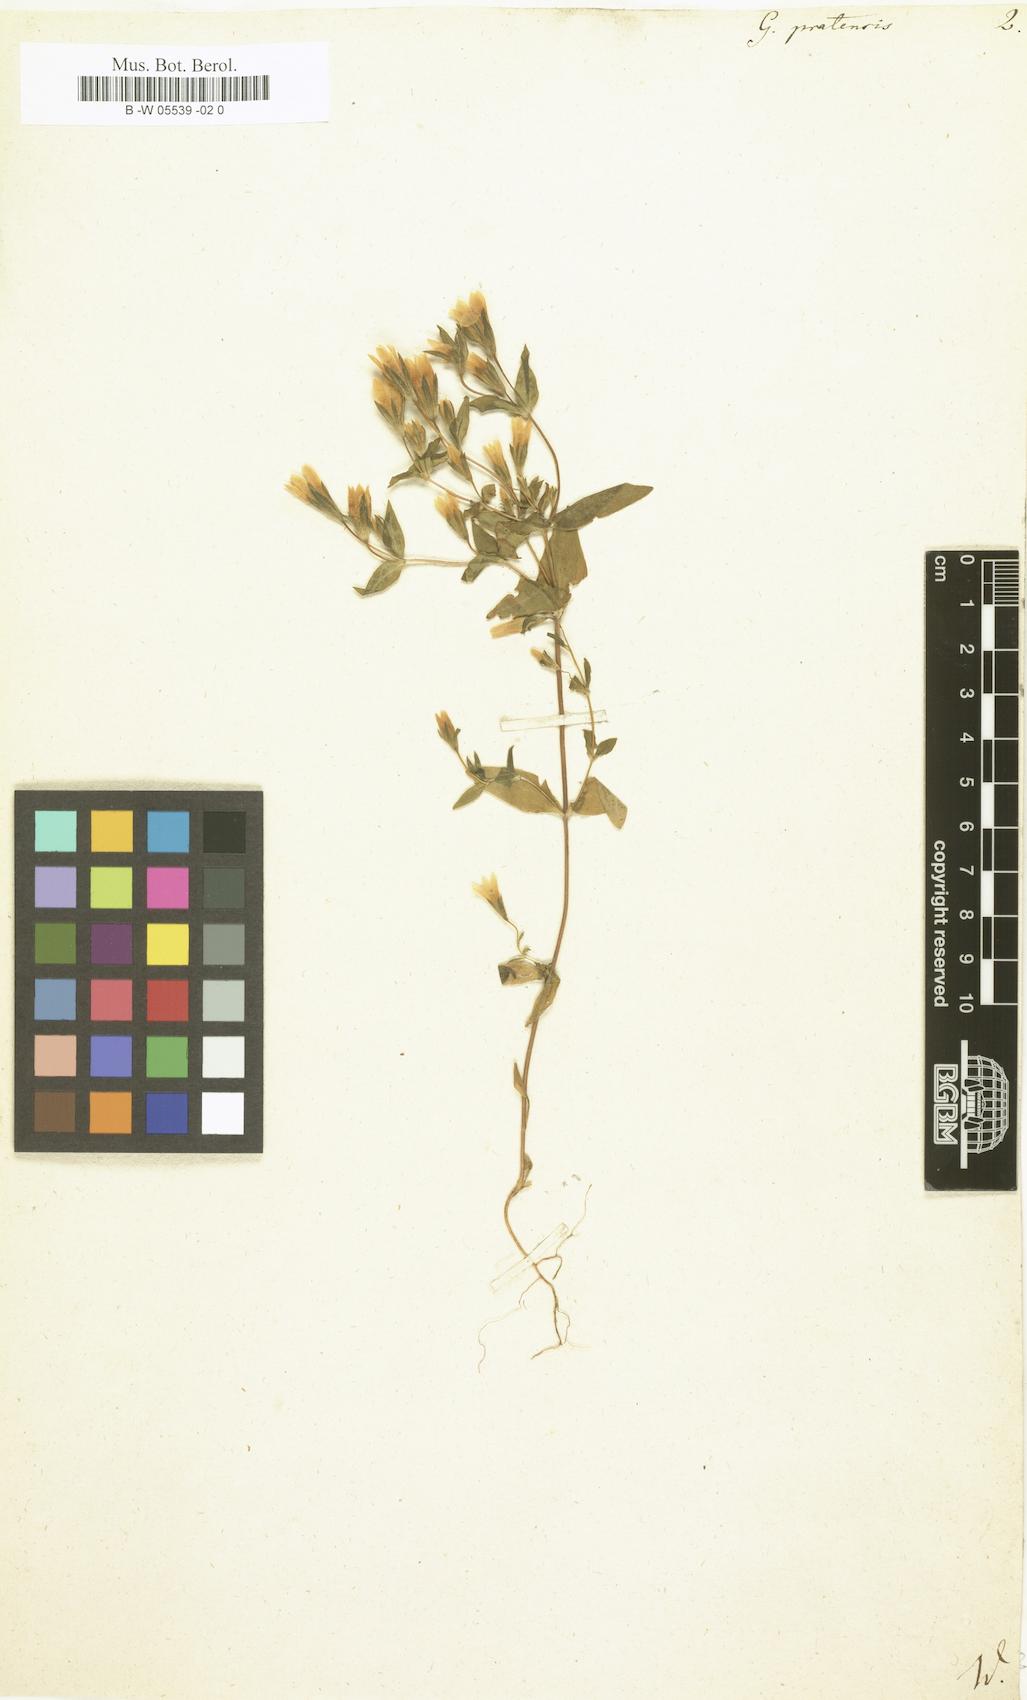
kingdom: Plantae
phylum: Tracheophyta
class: Magnoliopsida
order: Gentianales
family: Gentianaceae
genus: Gentianella
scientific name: Gentianella amarella
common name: Autumn gentian
